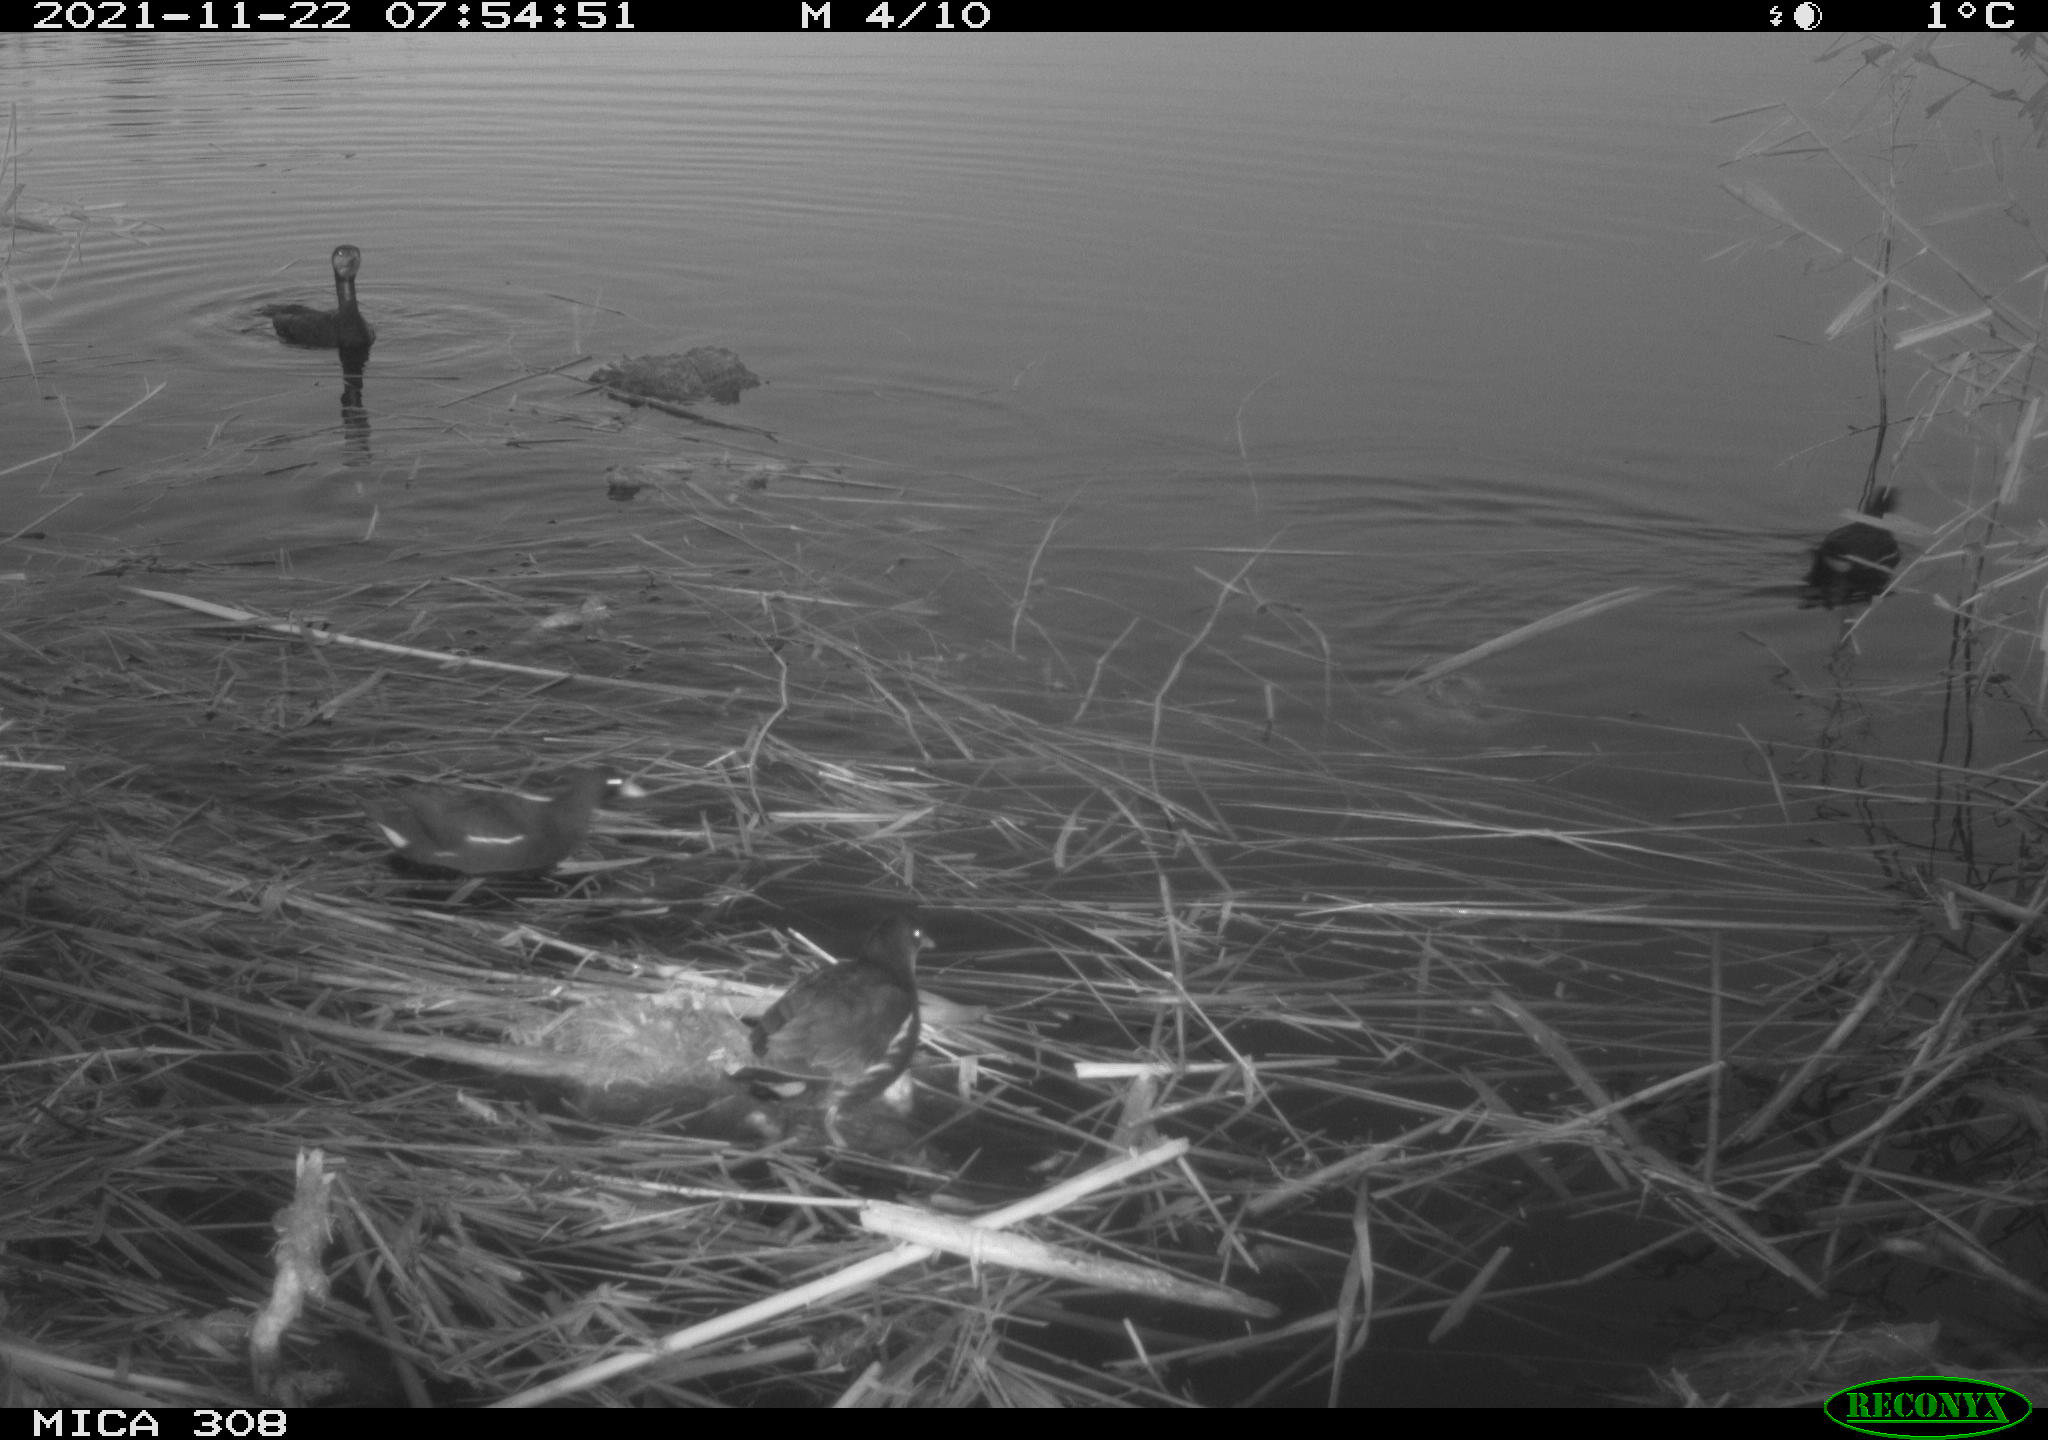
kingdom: Animalia
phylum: Chordata
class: Aves
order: Gruiformes
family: Rallidae
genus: Gallinula
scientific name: Gallinula chloropus
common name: Common moorhen
